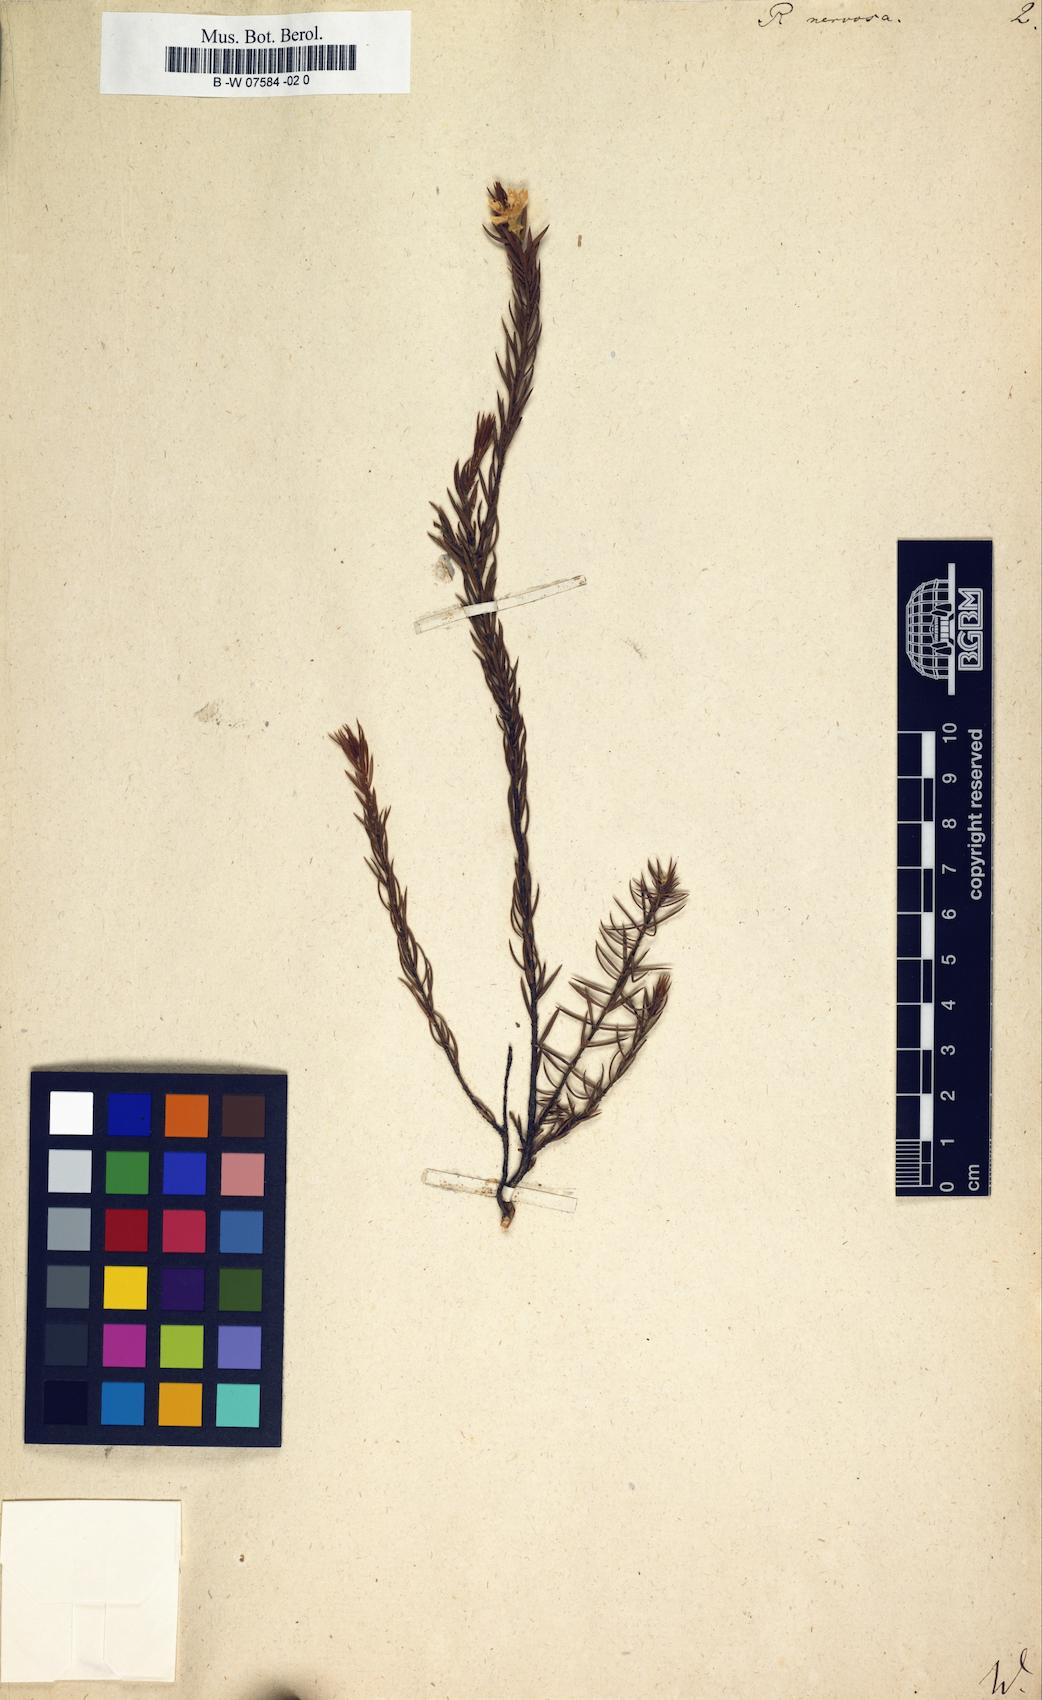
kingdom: Plantae
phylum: Tracheophyta
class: Magnoliopsida
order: Malvales
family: Thymelaeaceae
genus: Lachnaea
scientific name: Lachnaea
